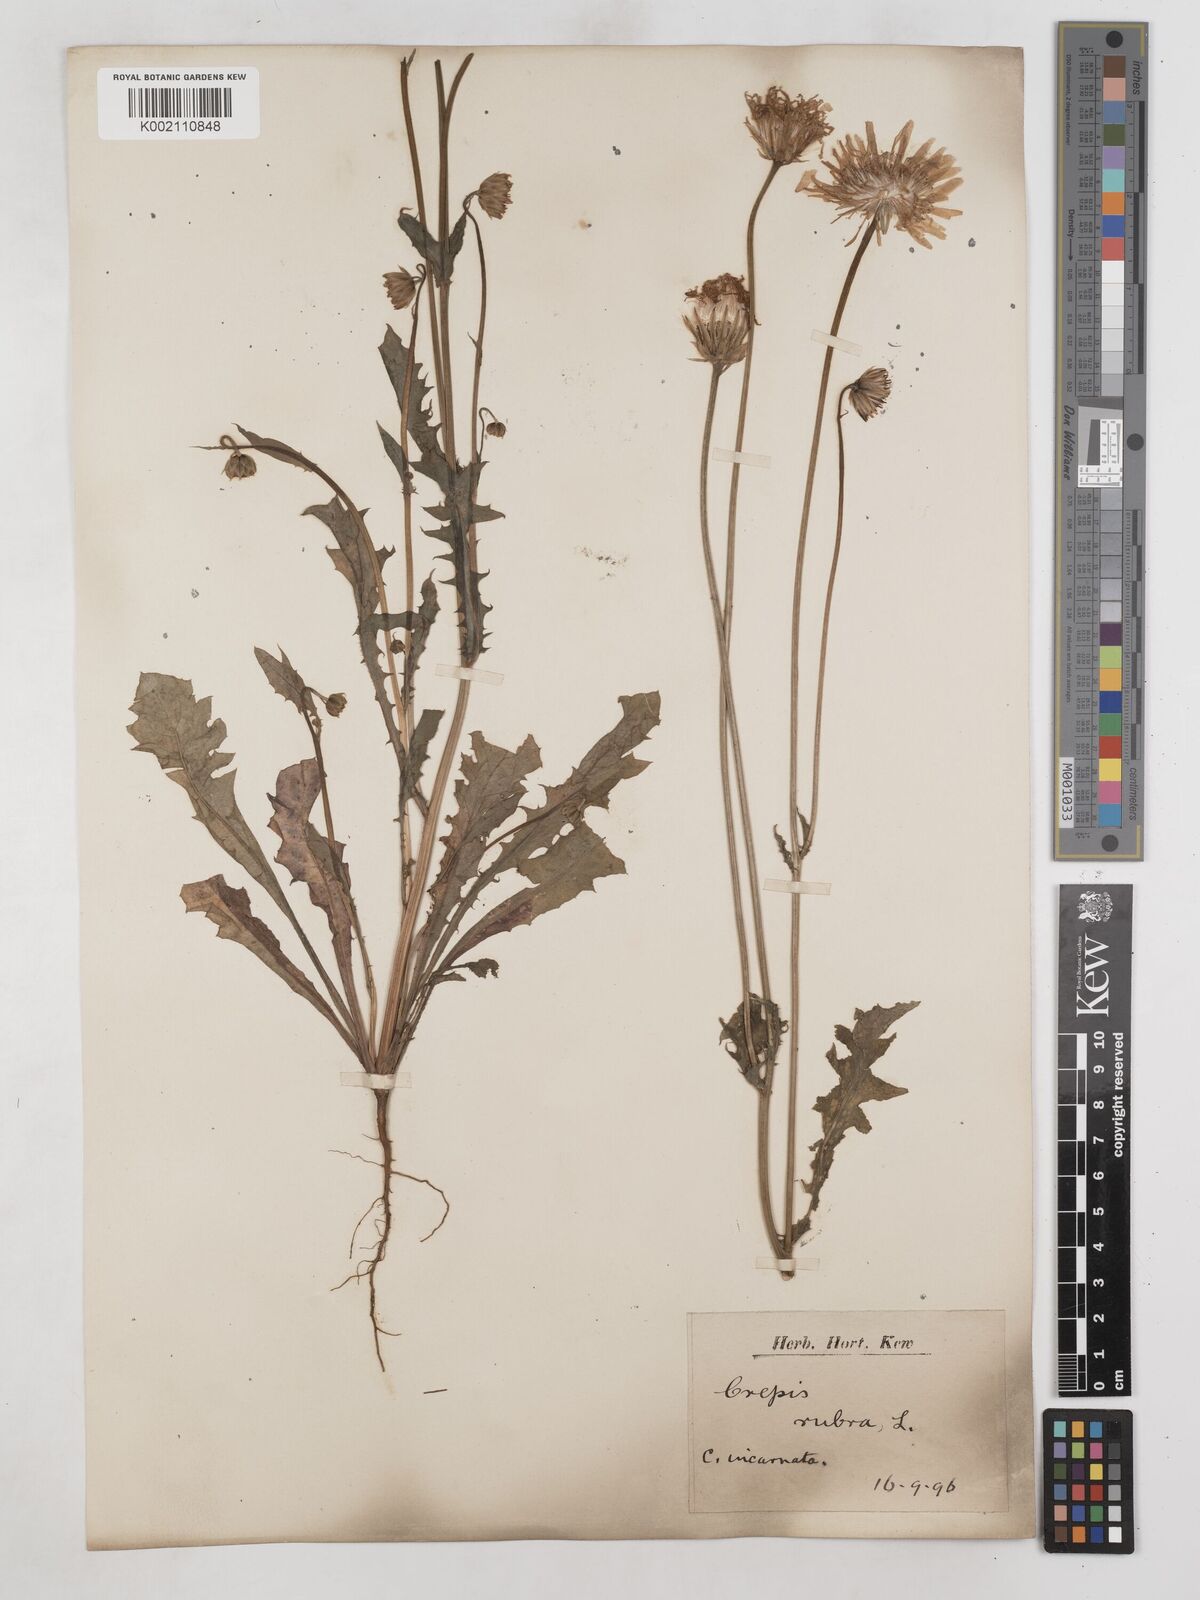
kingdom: Plantae
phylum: Tracheophyta
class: Magnoliopsida
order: Asterales
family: Asteraceae
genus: Crepis
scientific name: Crepis rubra
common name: Pink hawk's-beard
